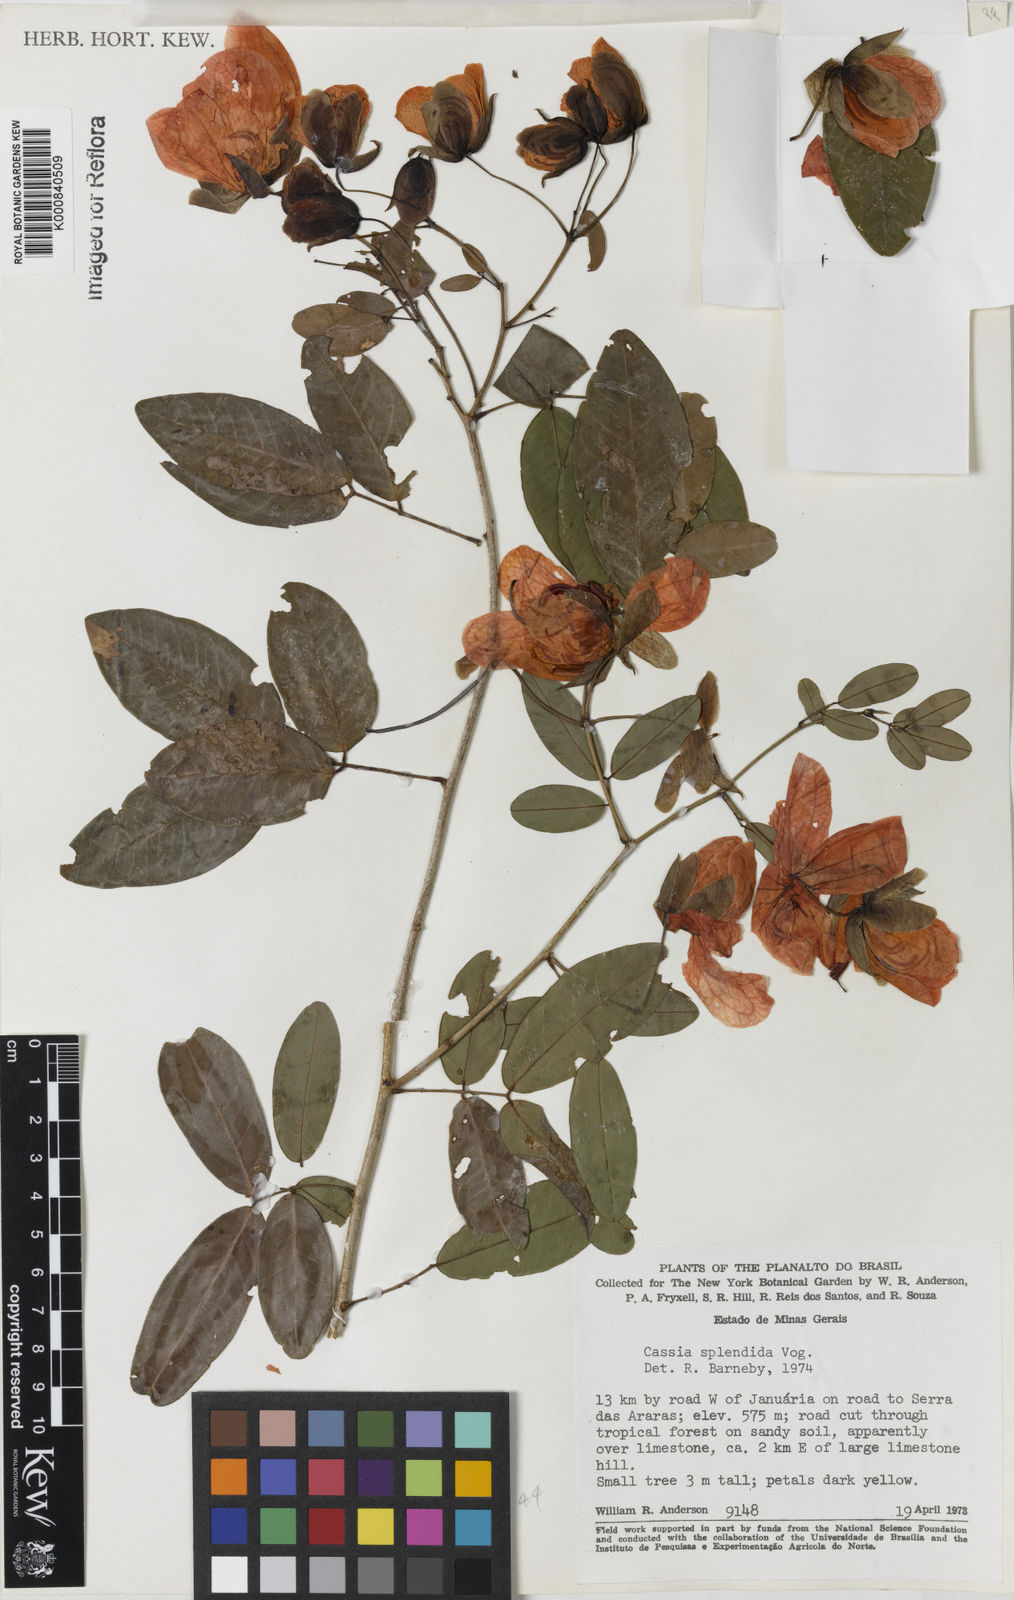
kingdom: Plantae
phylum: Tracheophyta
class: Magnoliopsida
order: Fabales
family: Fabaceae
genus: Senna
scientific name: Senna splendida
